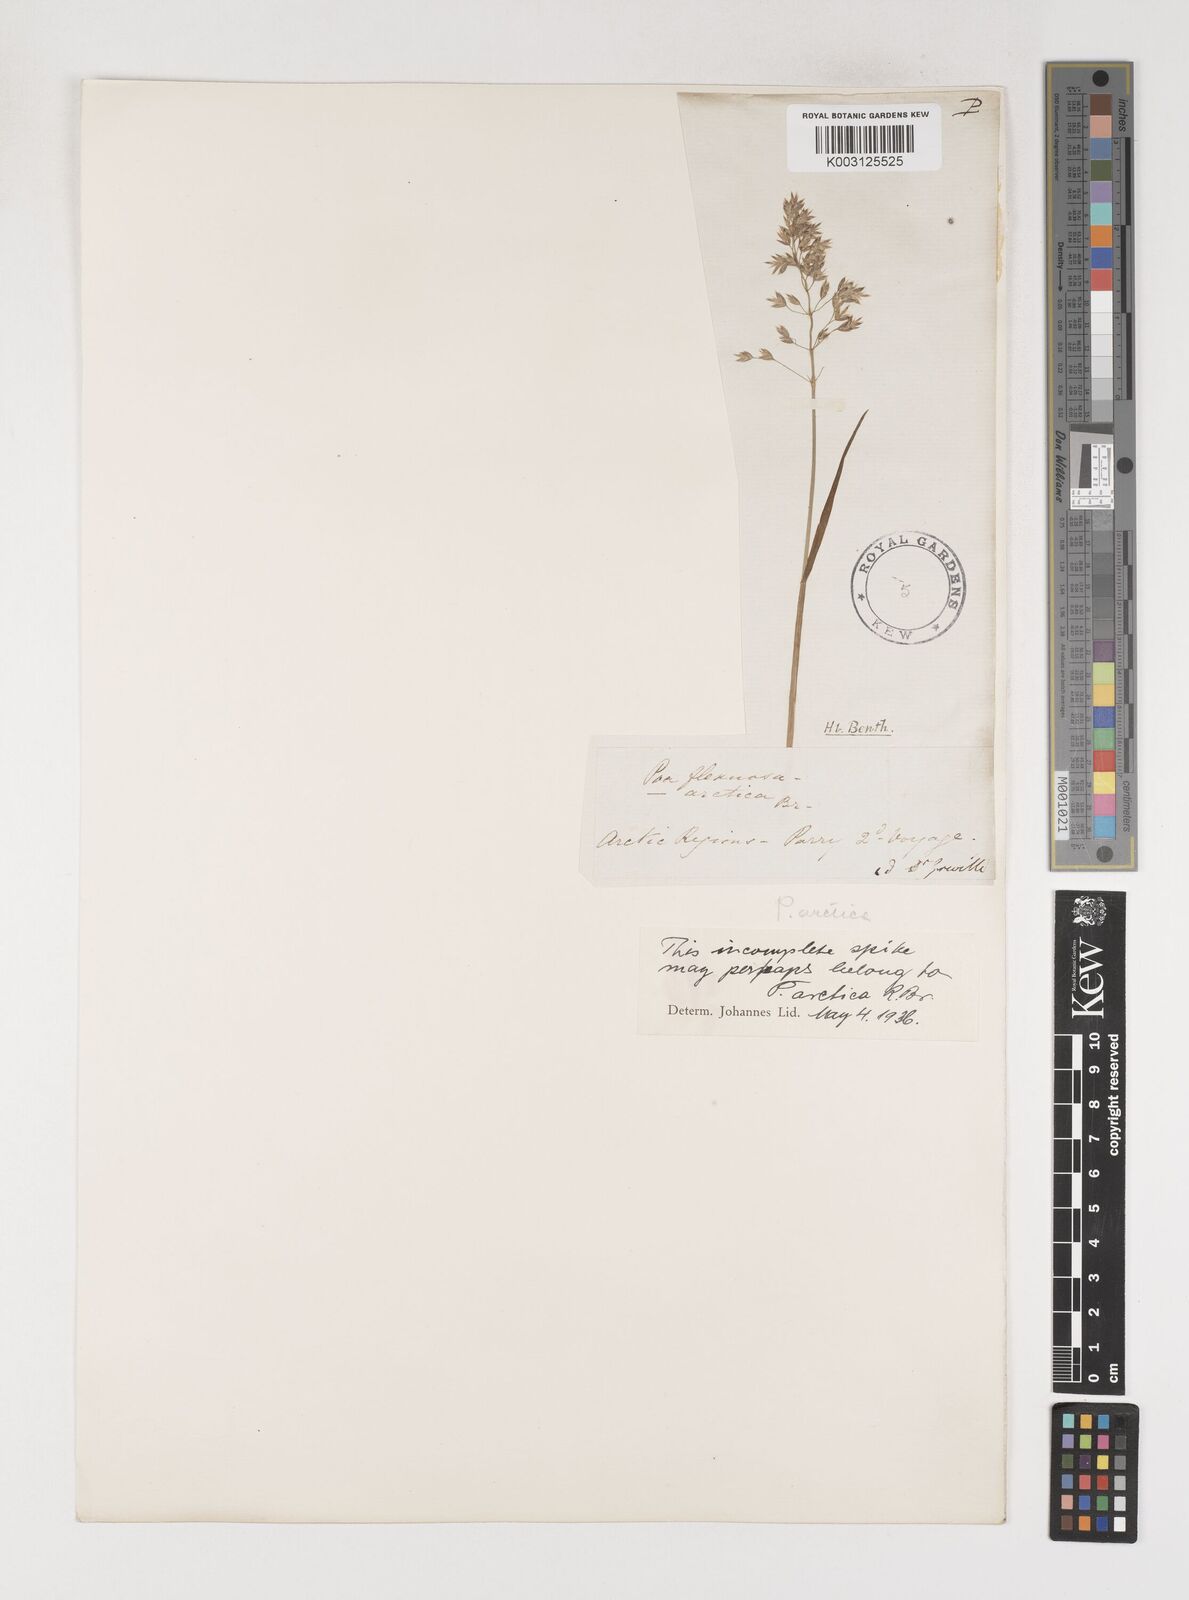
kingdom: Plantae
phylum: Tracheophyta
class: Liliopsida
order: Poales
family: Poaceae
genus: Poa
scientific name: Poa arctica
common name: Arctic bluegrass
